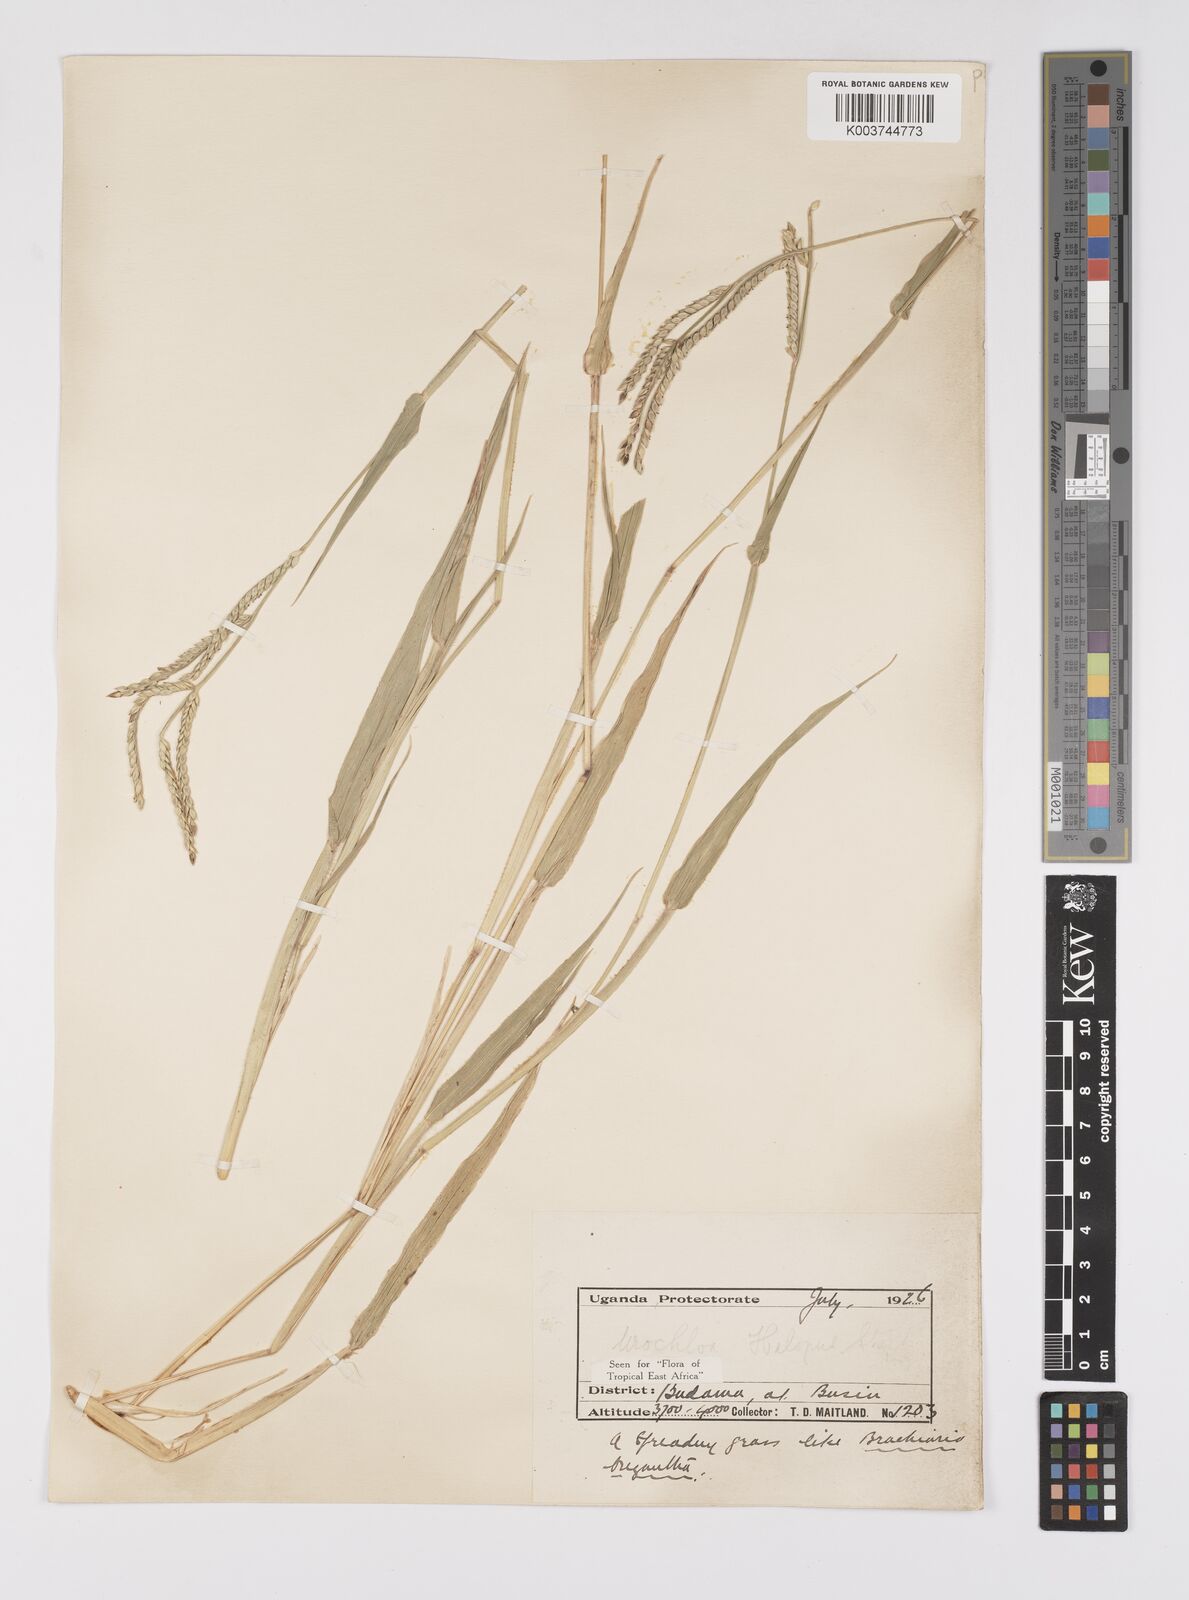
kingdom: Plantae
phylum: Tracheophyta
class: Liliopsida
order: Poales
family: Poaceae
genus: Urochloa
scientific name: Urochloa panicoides
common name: Sharp-flowered signal-grass
